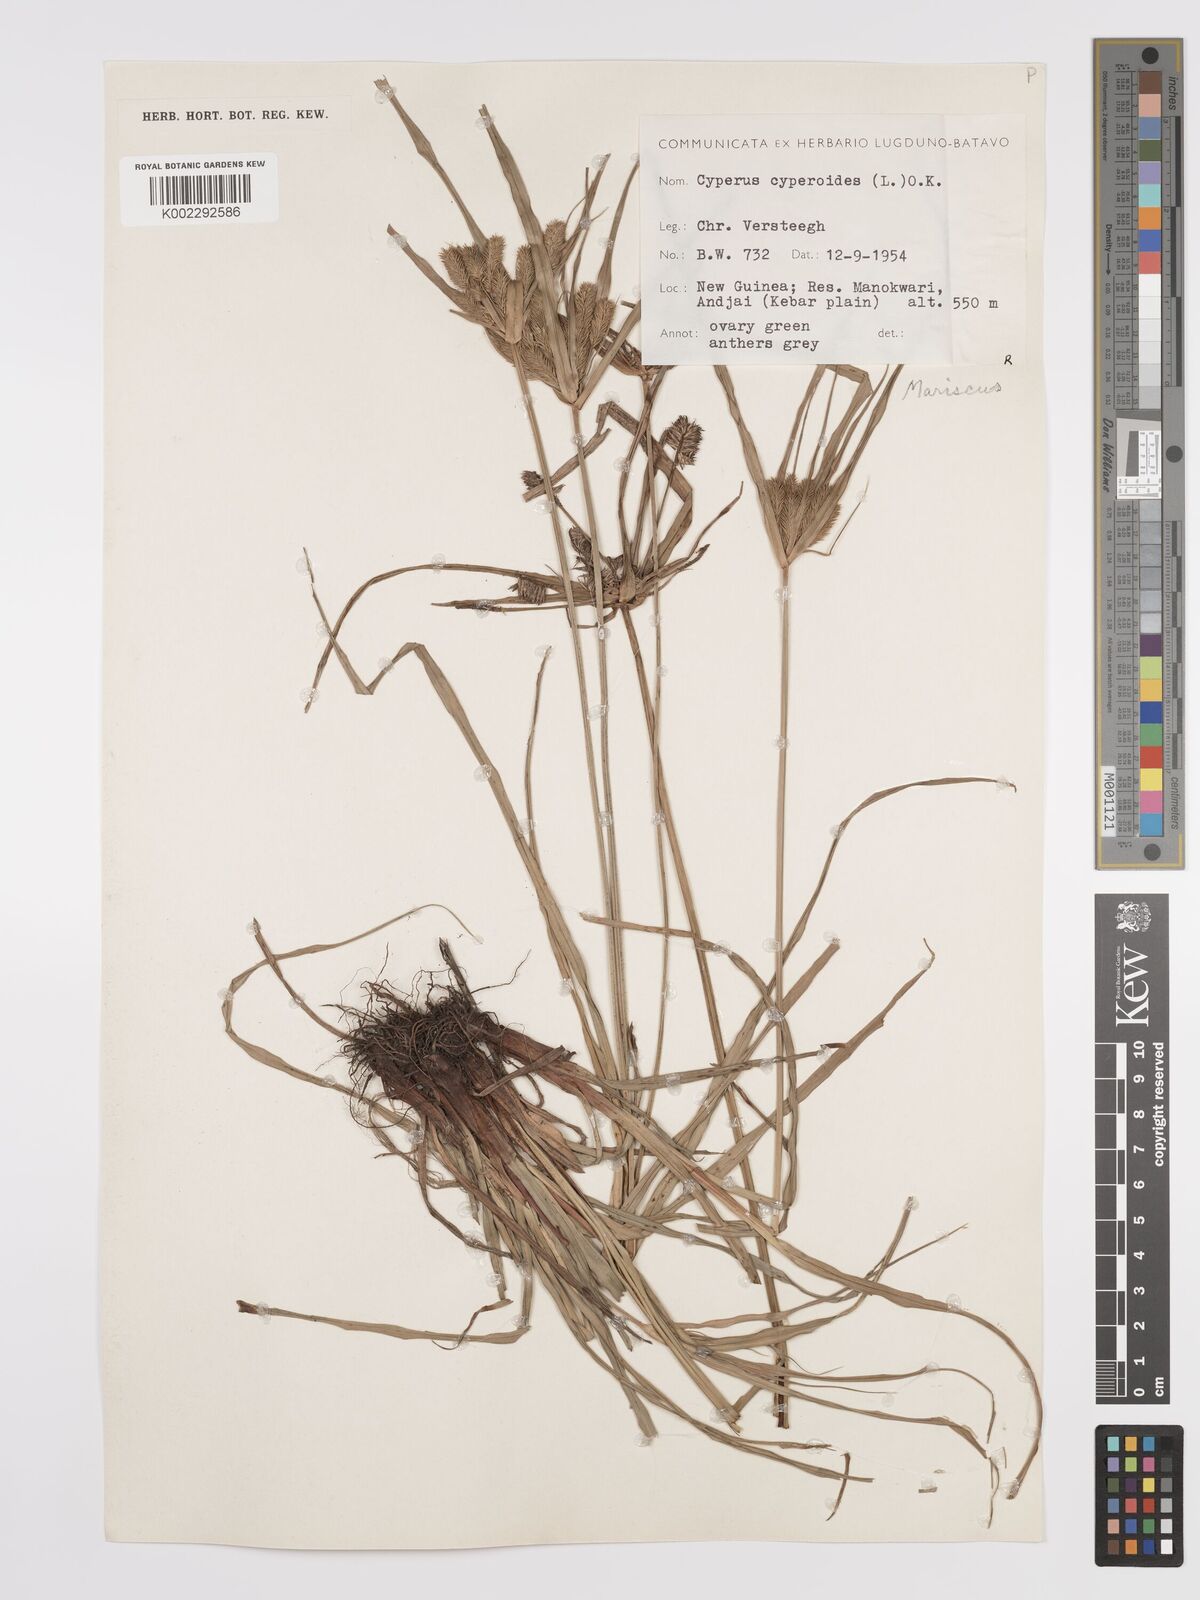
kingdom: Plantae
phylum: Tracheophyta
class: Liliopsida
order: Poales
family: Cyperaceae
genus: Cyperus
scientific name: Cyperus cyperoides
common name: Pacific island flat sedge
